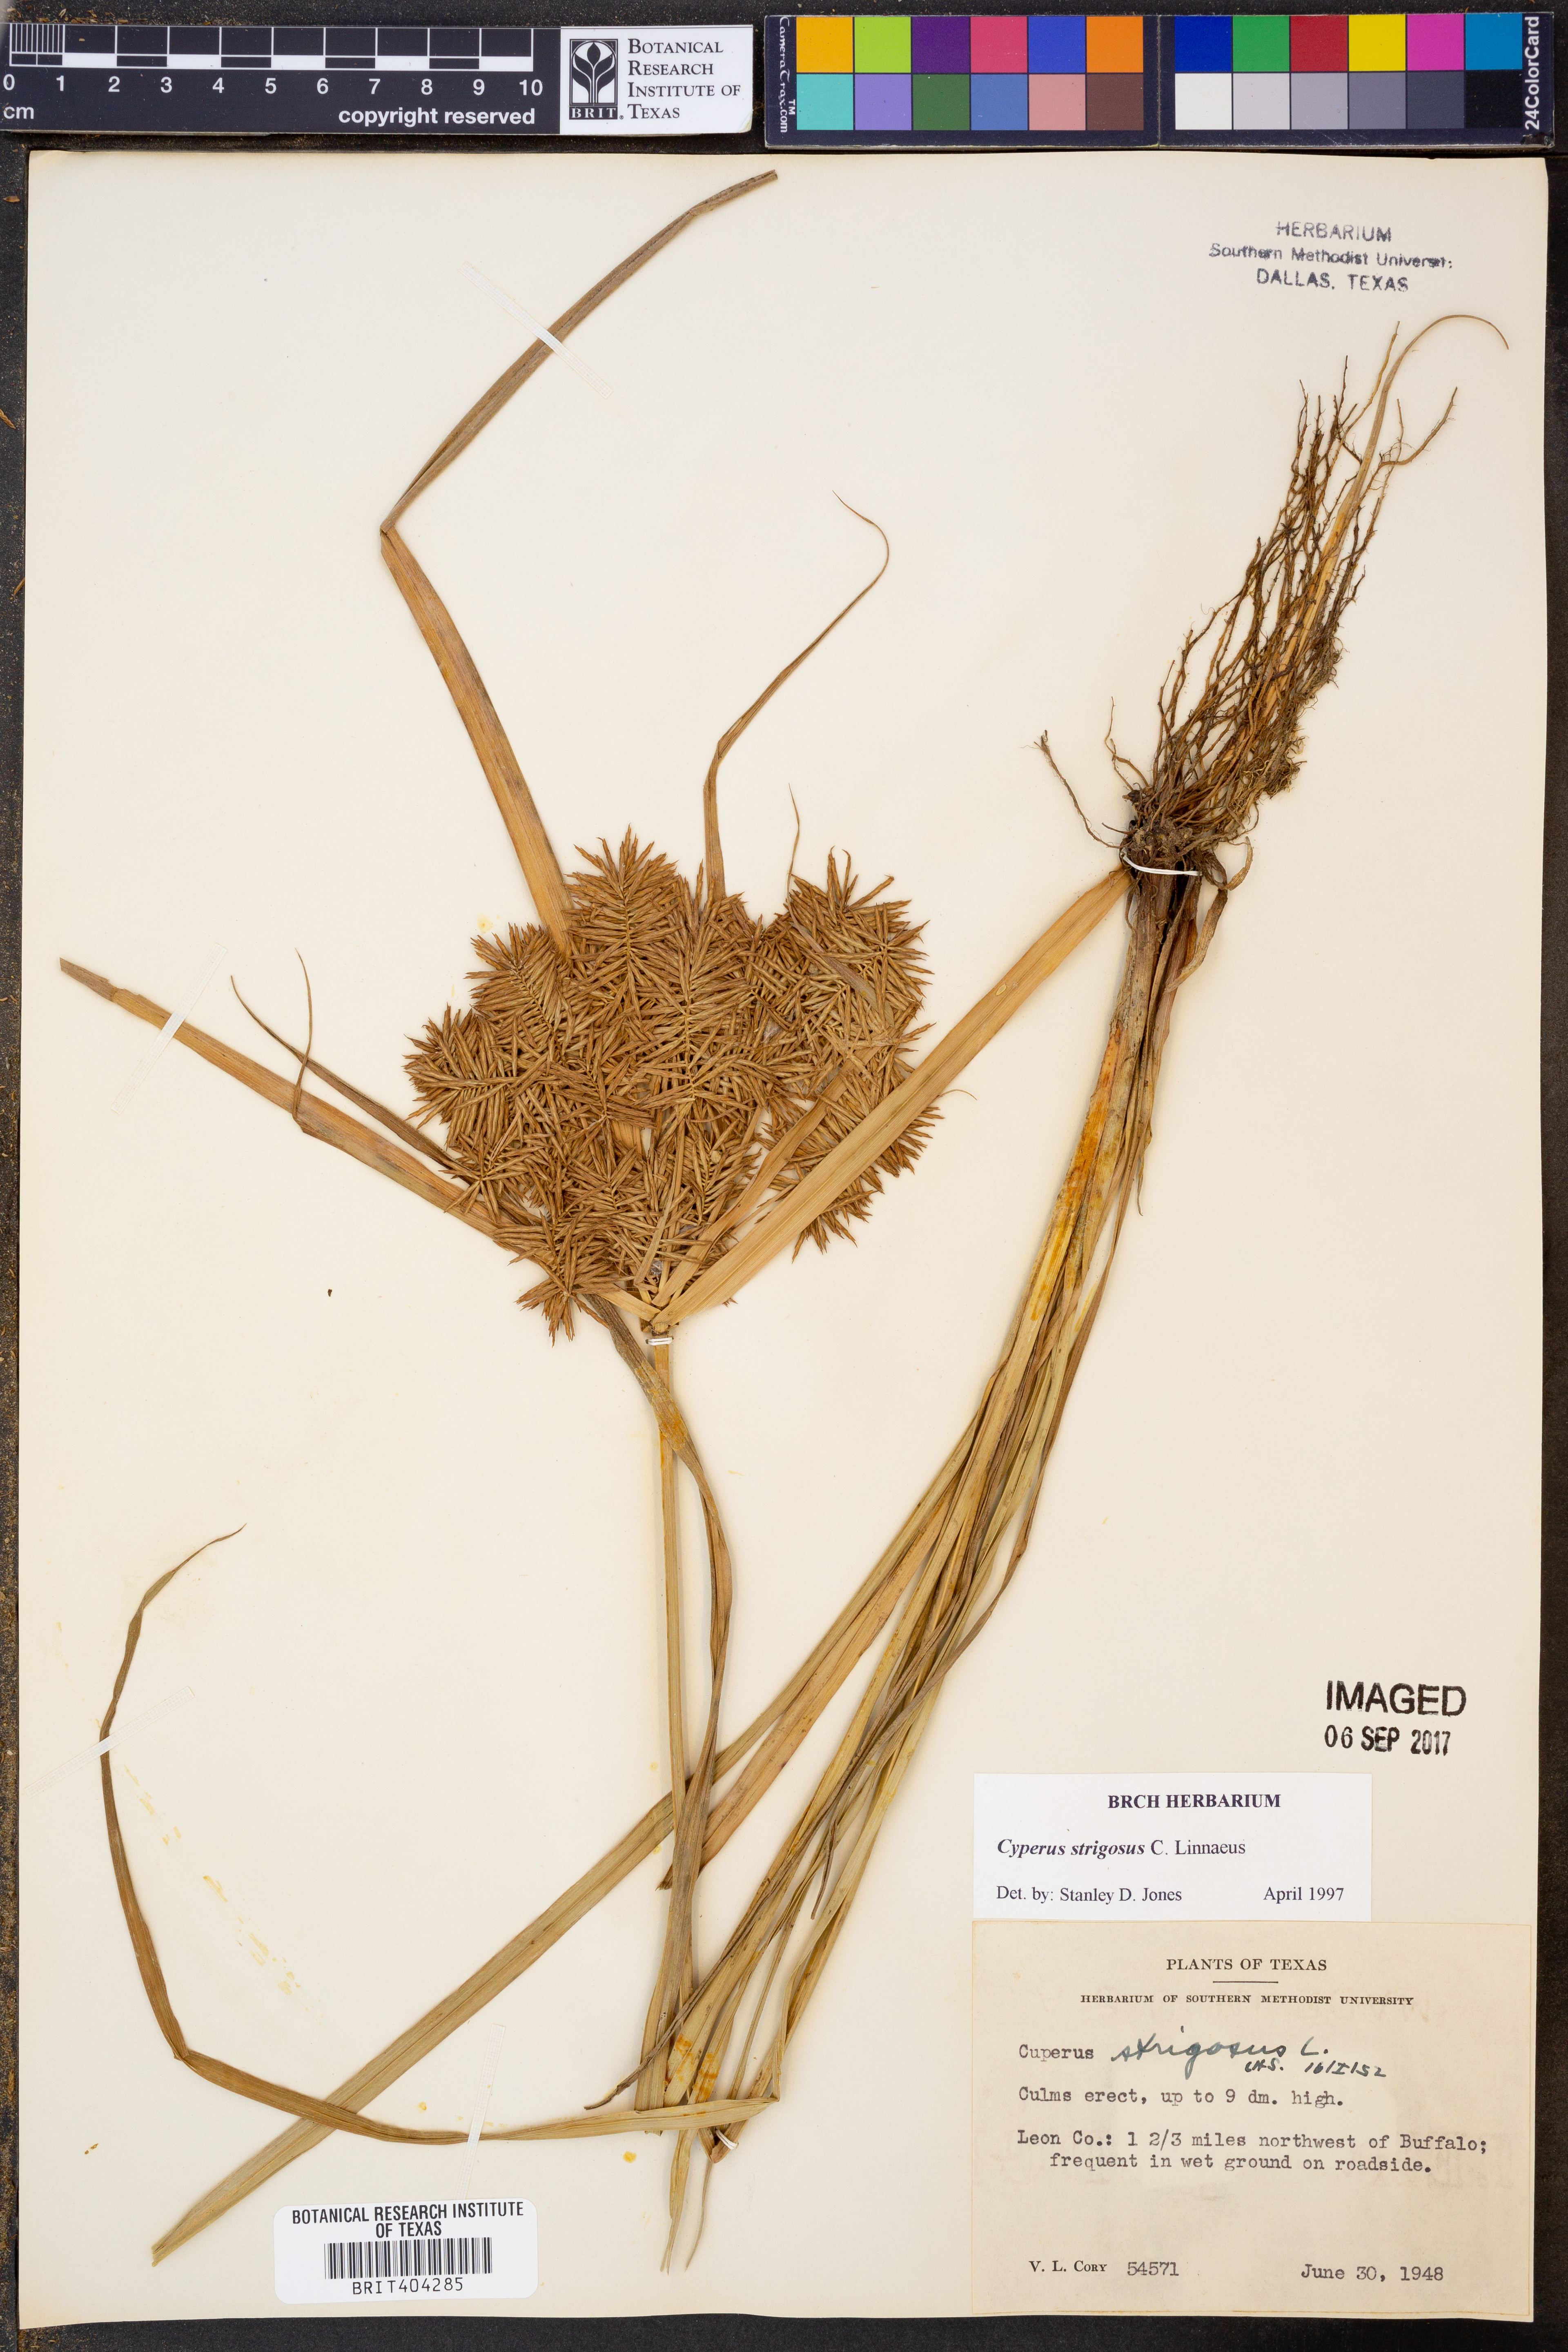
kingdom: Plantae
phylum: Tracheophyta
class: Liliopsida
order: Poales
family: Cyperaceae
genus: Cyperus
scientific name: Cyperus strigosus
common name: False nutsedge
